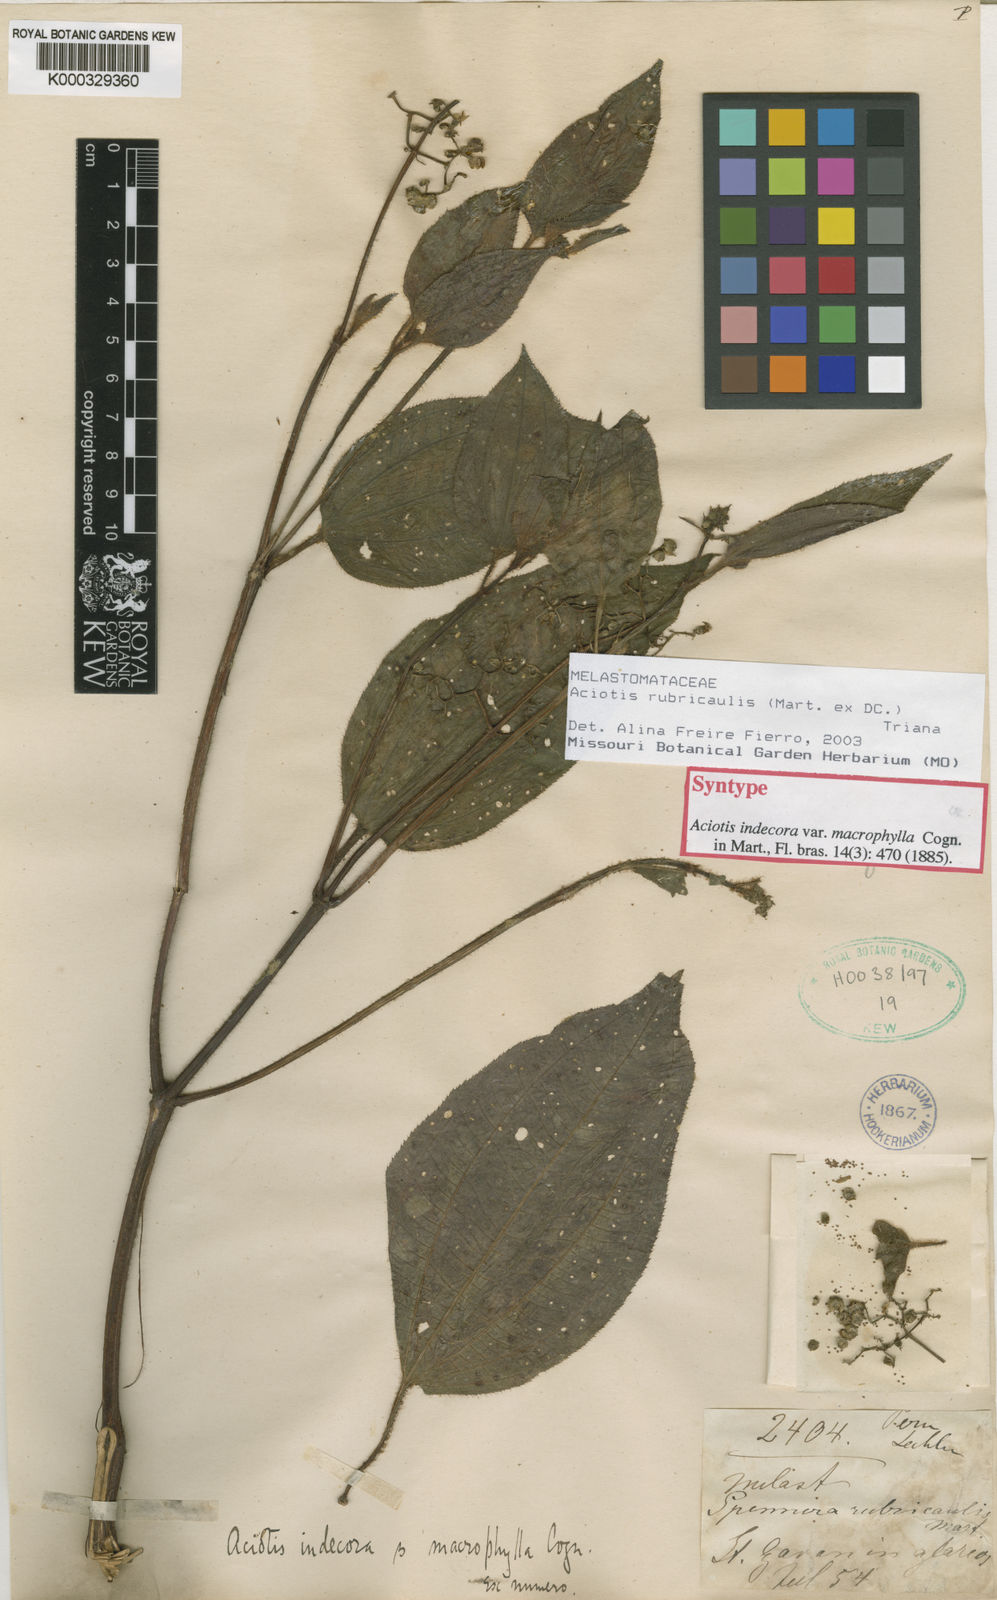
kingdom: Plantae
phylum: Tracheophyta
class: Magnoliopsida
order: Myrtales
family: Melastomataceae
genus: Aciotis
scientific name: Aciotis rubricaulis
